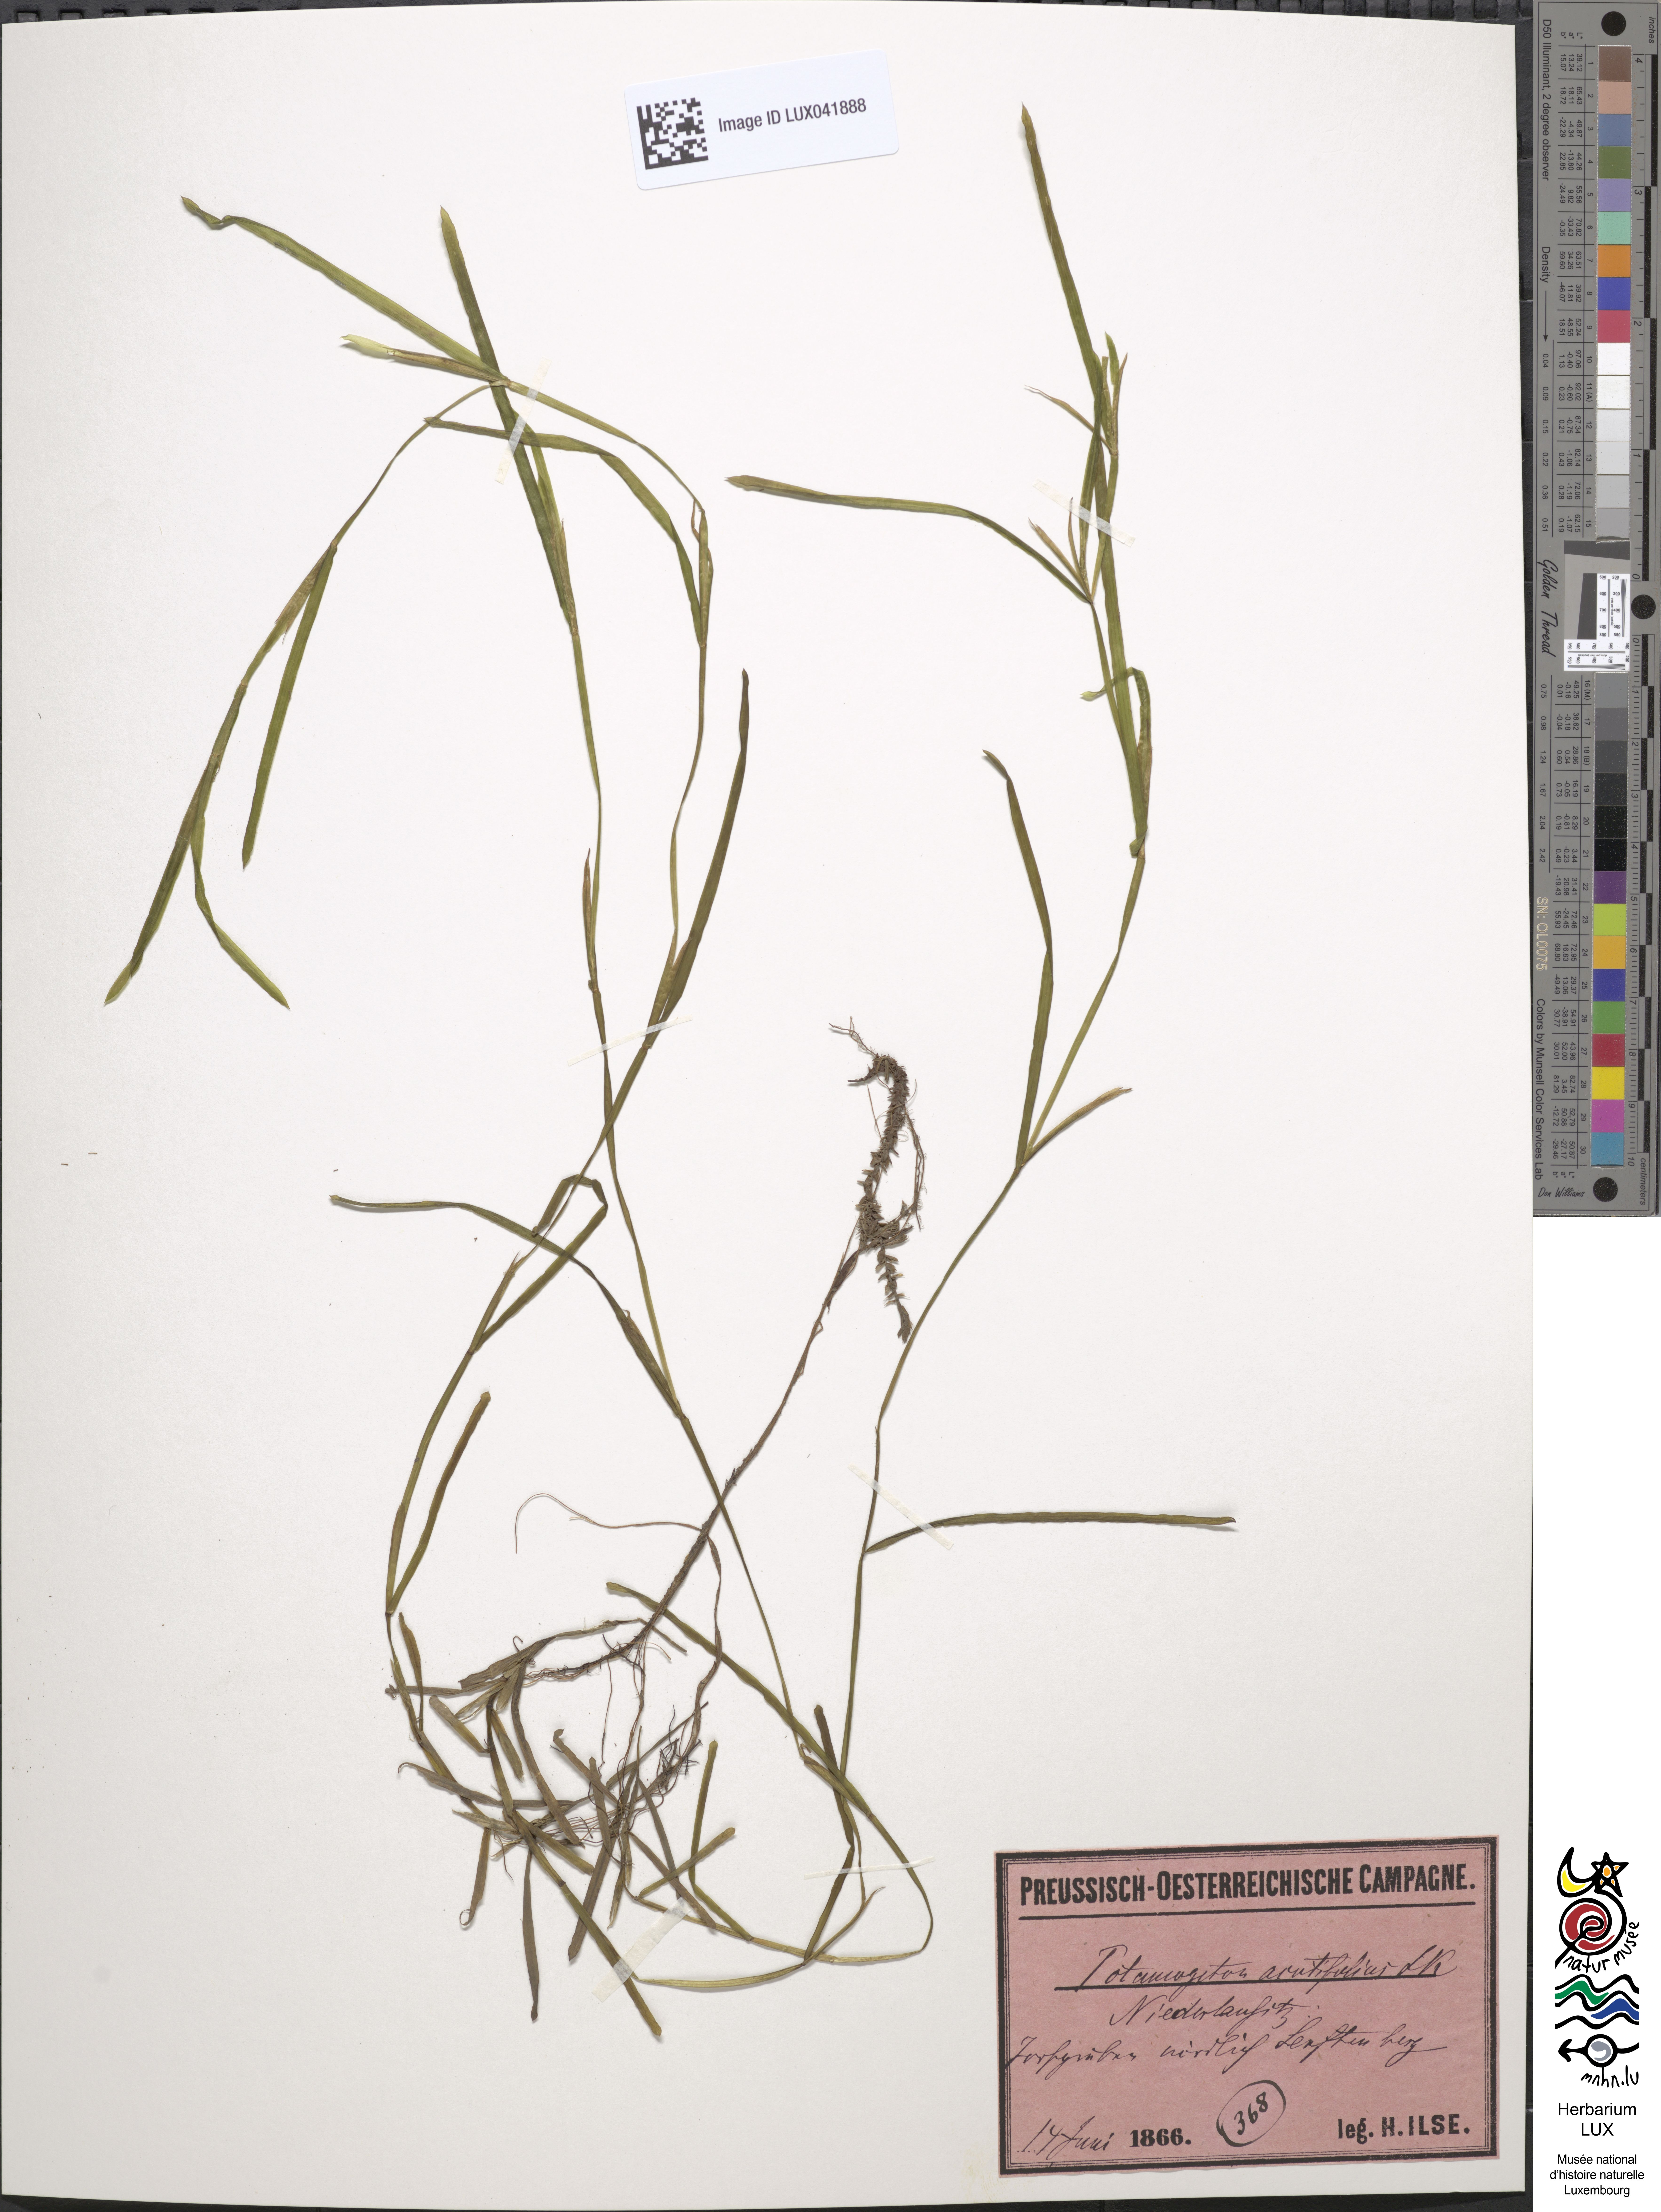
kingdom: Plantae
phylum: Tracheophyta
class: Liliopsida
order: Alismatales
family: Potamogetonaceae
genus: Potamogeton
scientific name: Potamogeton acutifolius
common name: Sharp-leaved pondweed
